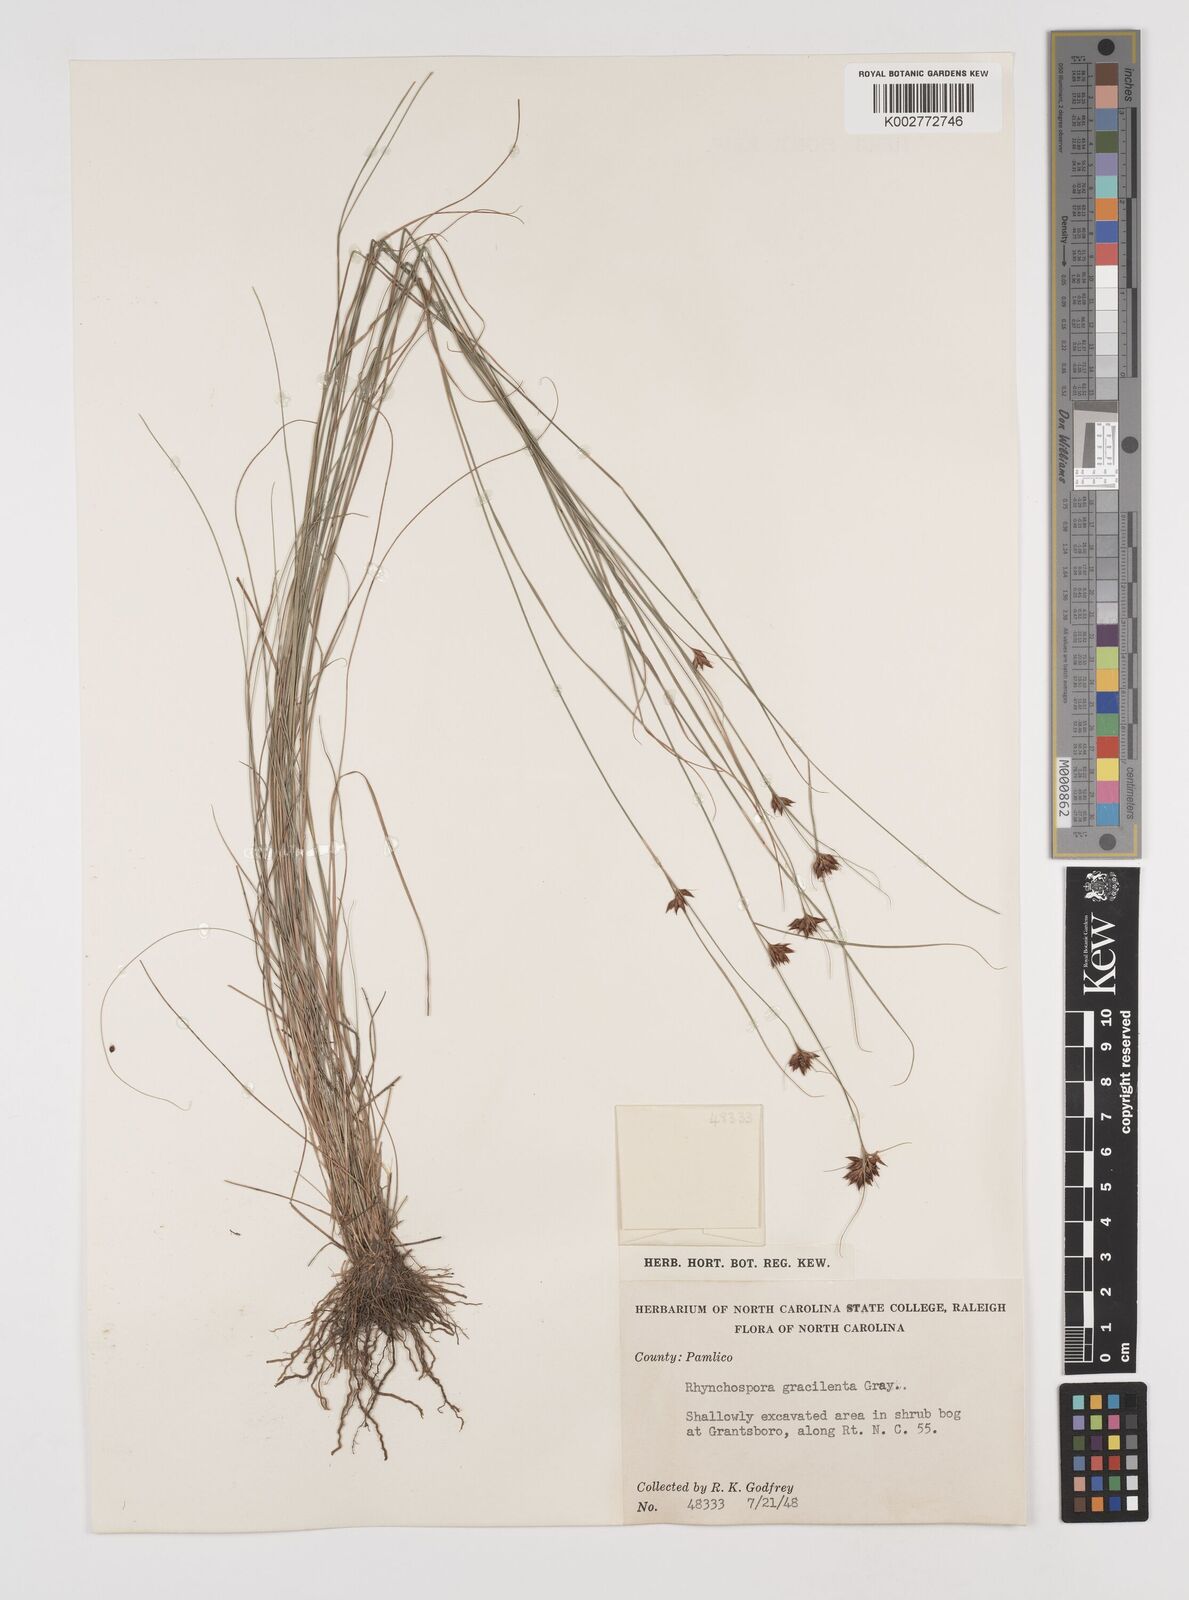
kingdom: Plantae
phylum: Tracheophyta
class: Liliopsida
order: Poales
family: Cyperaceae
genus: Rhynchospora
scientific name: Rhynchospora gracilenta
